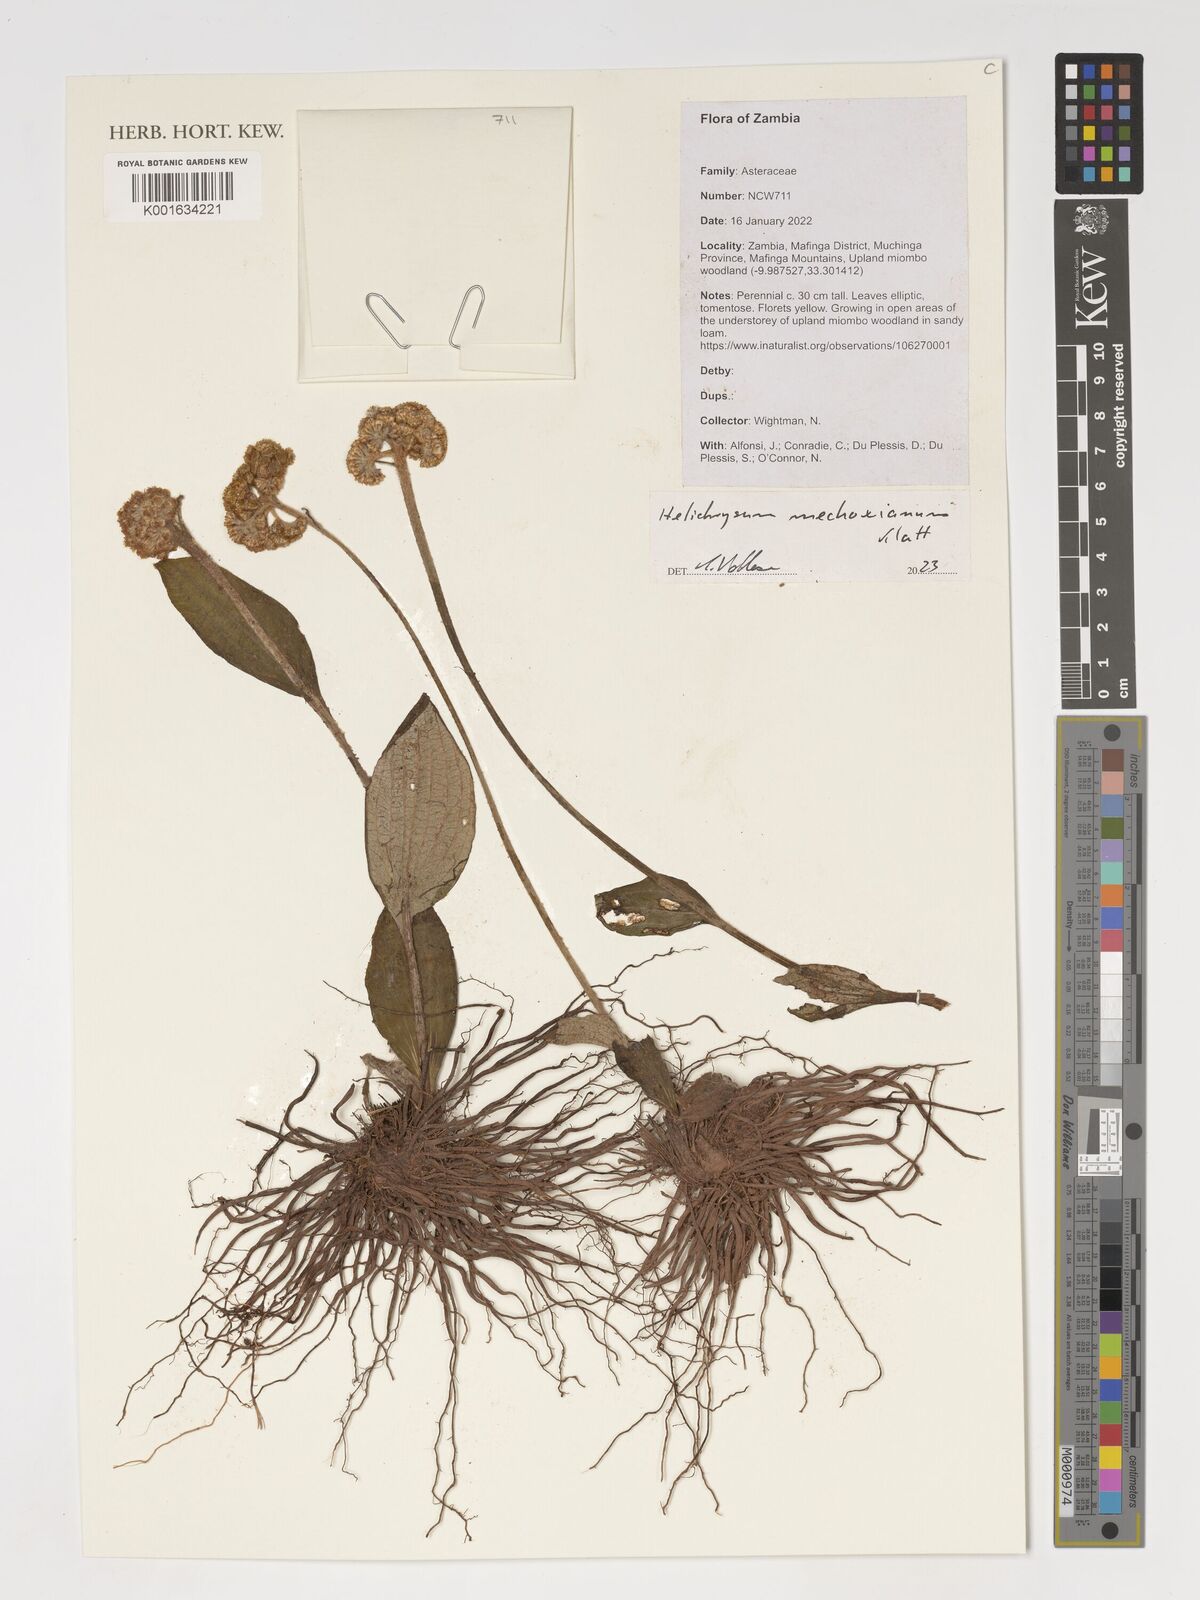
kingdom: Plantae
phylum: Tracheophyta
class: Magnoliopsida
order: Asterales
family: Asteraceae
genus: Helichrysum
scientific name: Helichrysum mechowianum
